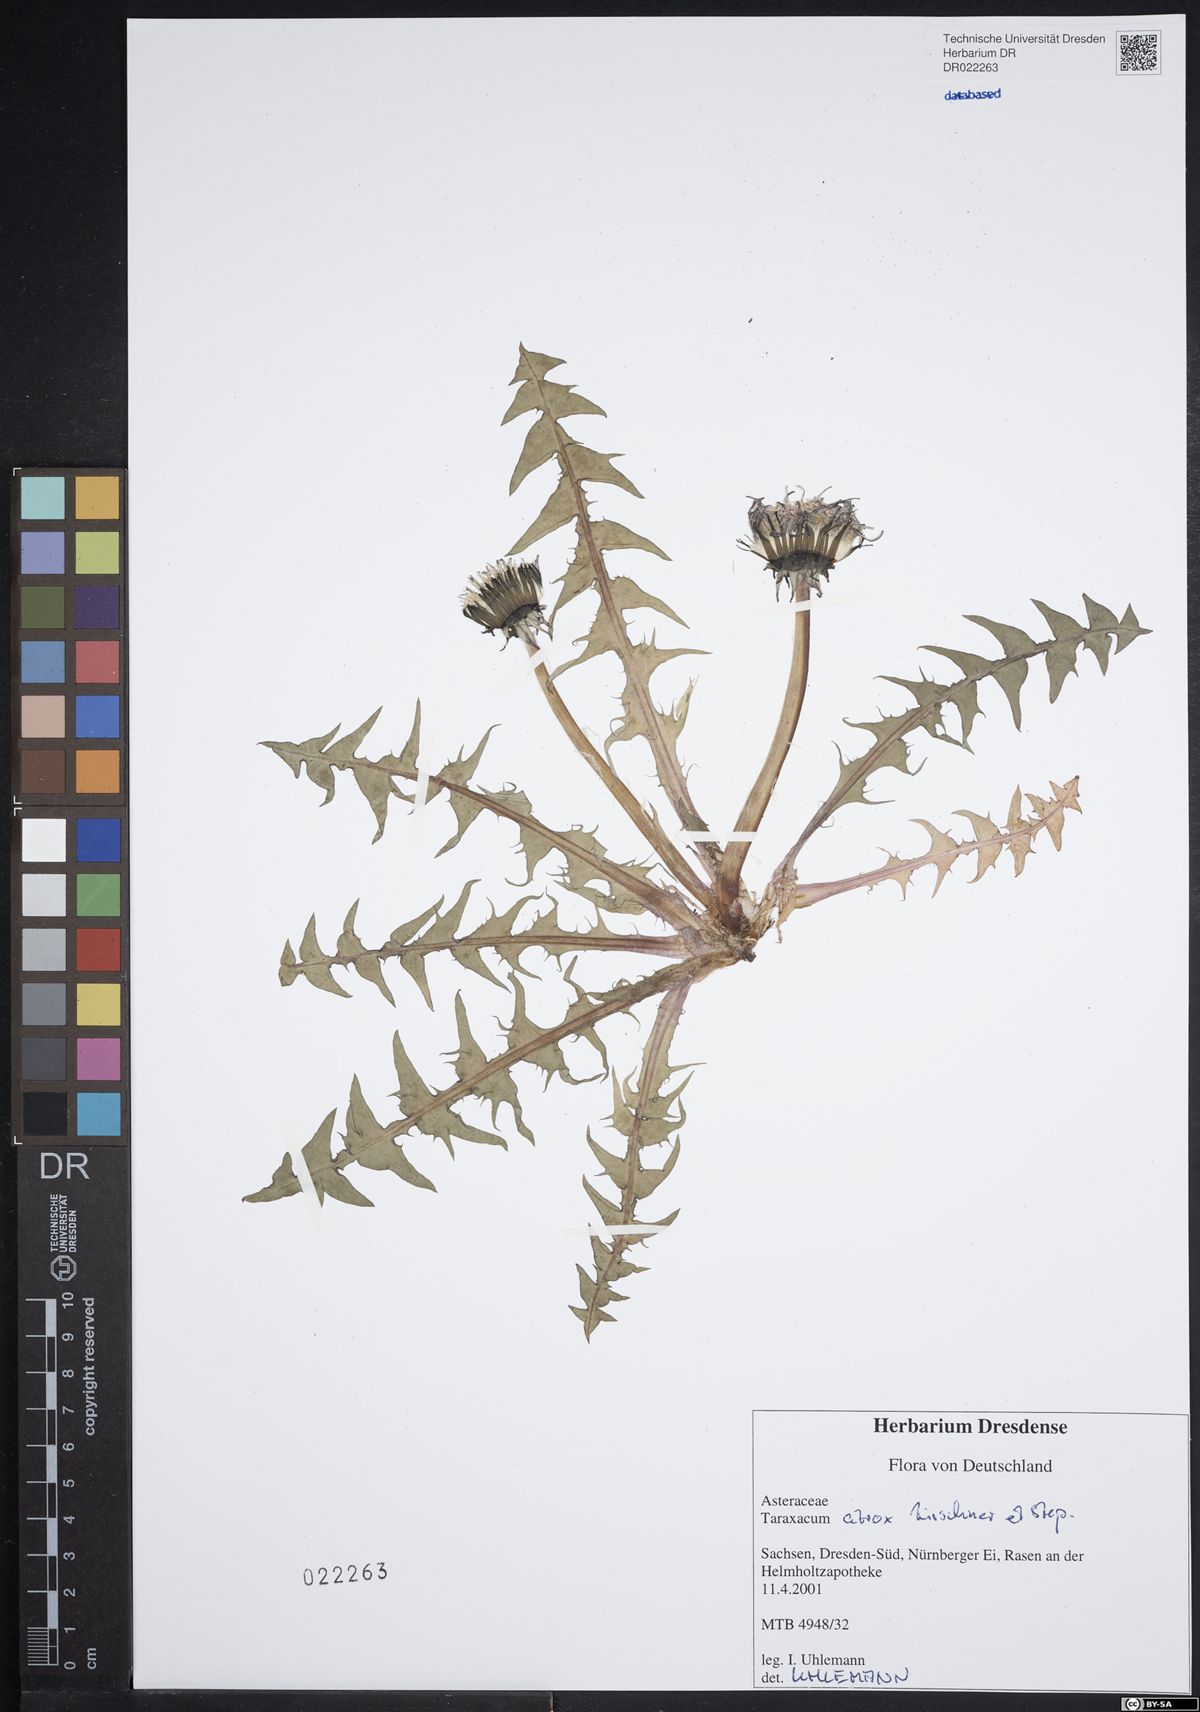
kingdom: Plantae
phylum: Tracheophyta
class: Magnoliopsida
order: Asterales
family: Asteraceae
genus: Taraxacum
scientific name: Taraxacum atrox
